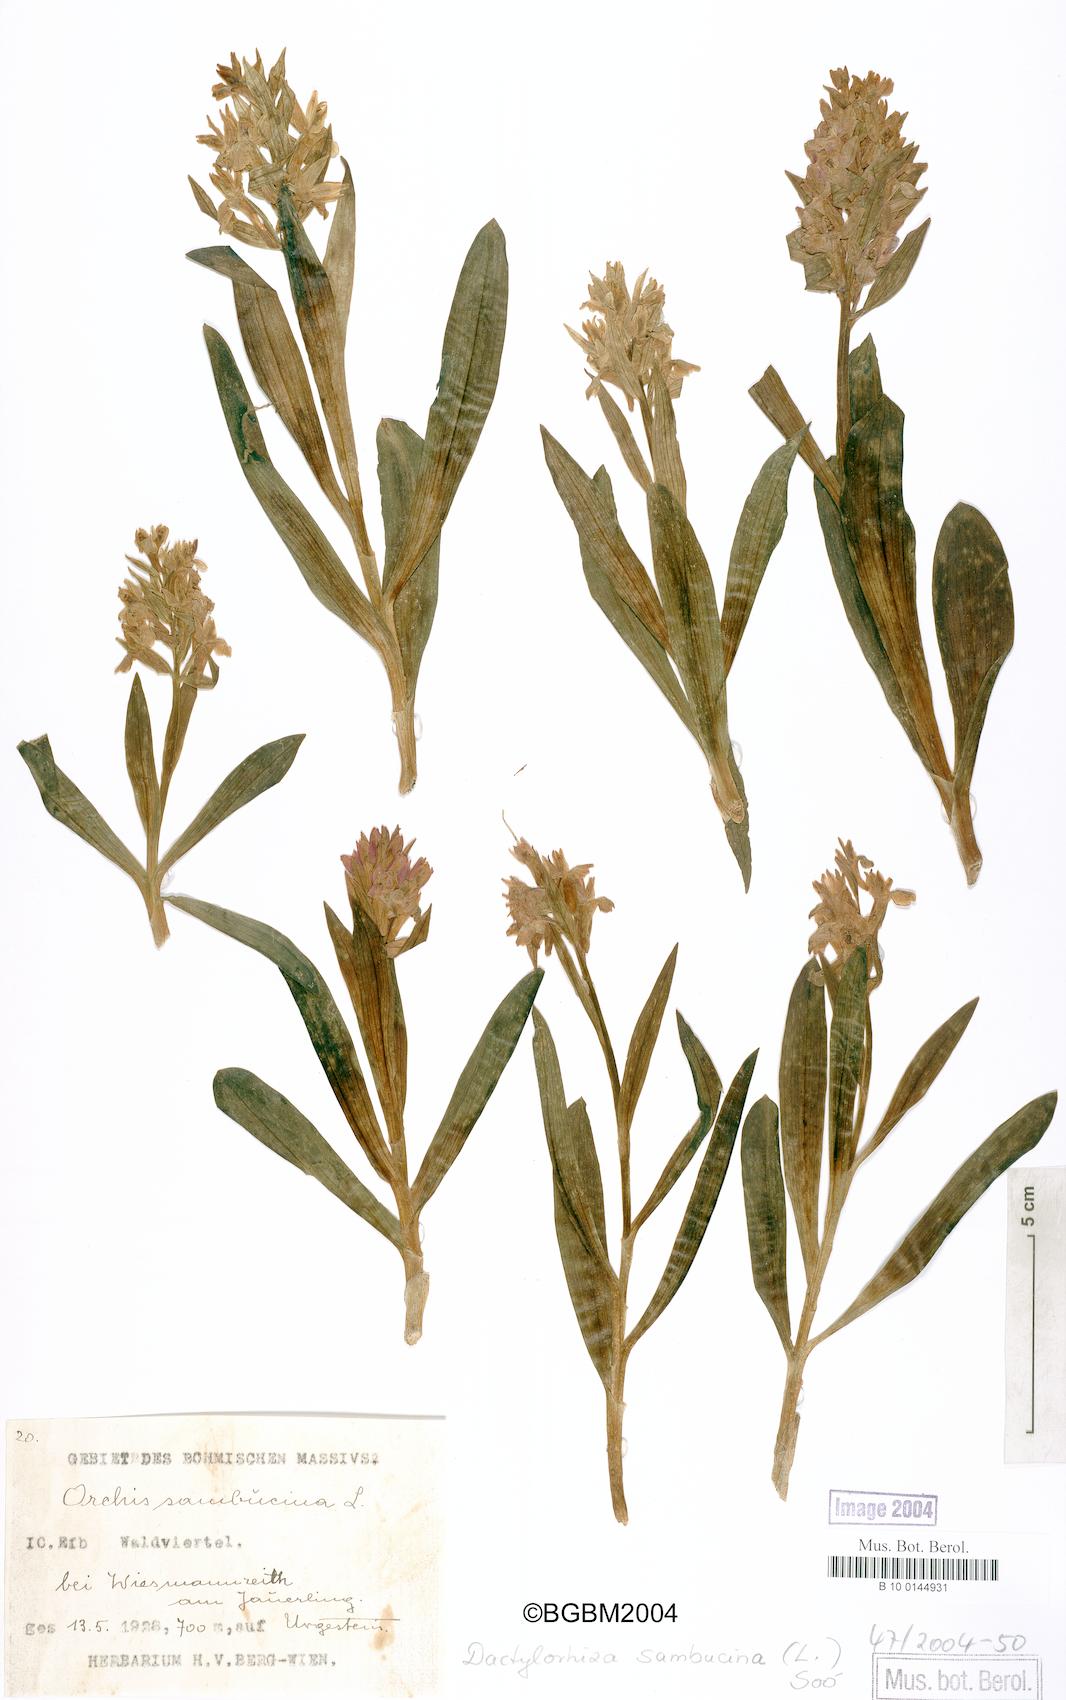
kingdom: Plantae
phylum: Tracheophyta
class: Liliopsida
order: Asparagales
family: Orchidaceae
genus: Dactylorhiza
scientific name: Dactylorhiza sambucina
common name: Elder-flowered orchid
